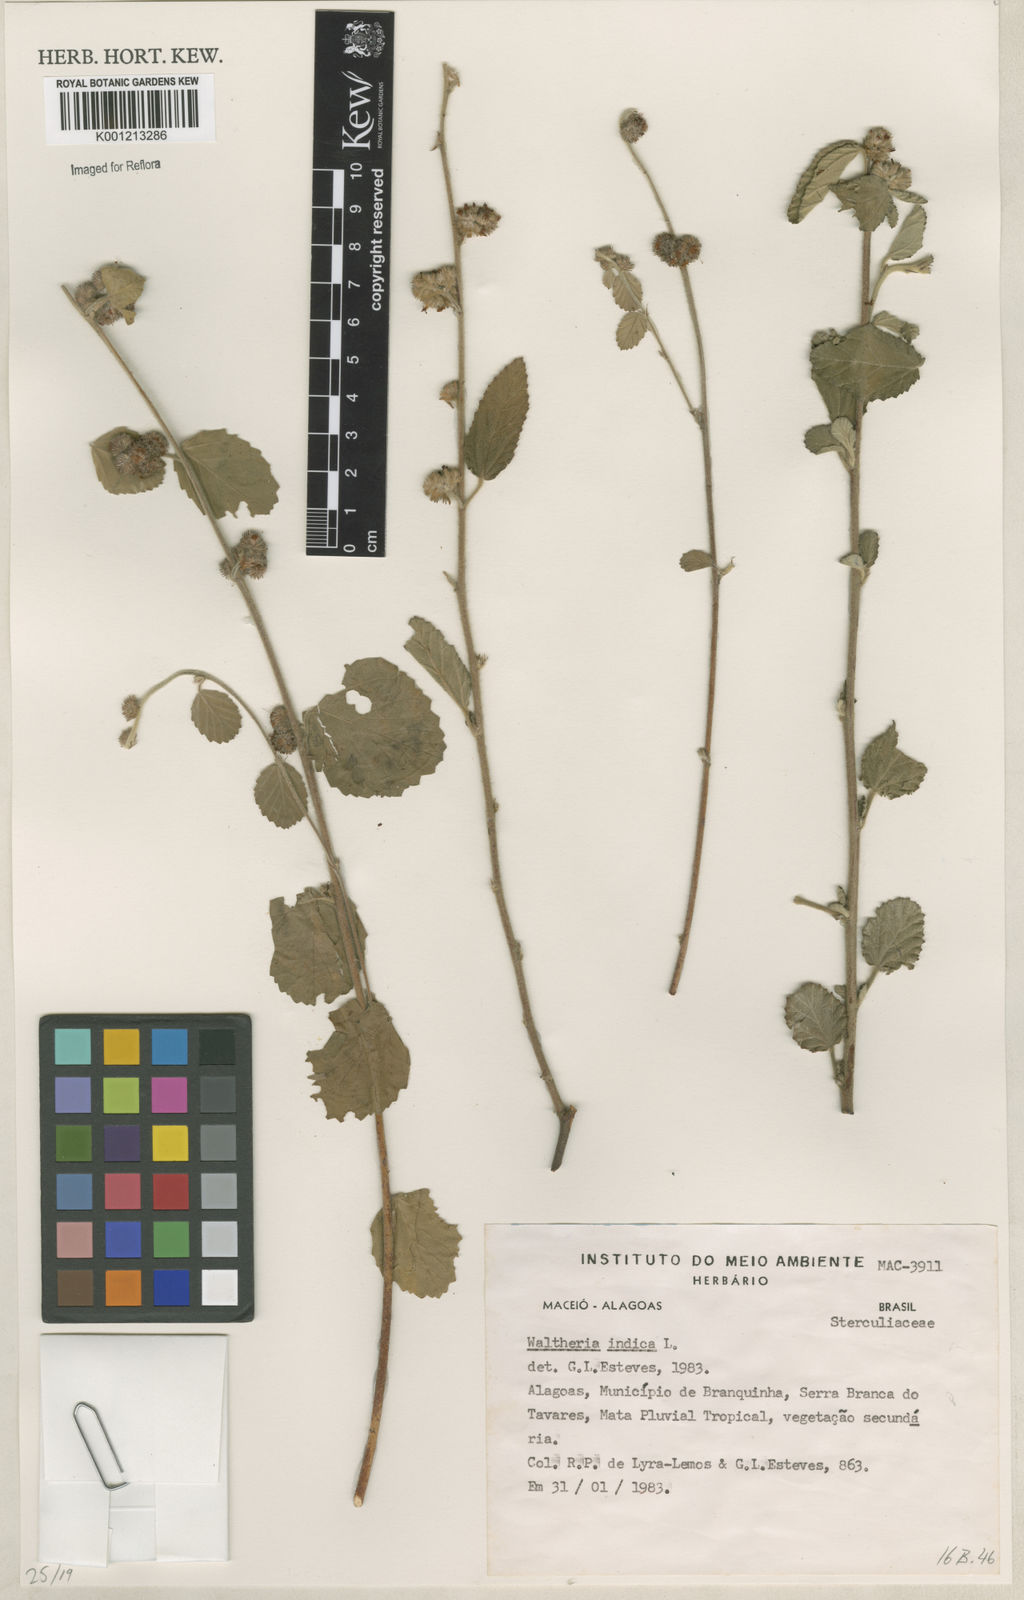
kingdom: Plantae
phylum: Tracheophyta
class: Magnoliopsida
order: Malvales
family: Malvaceae
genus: Waltheria
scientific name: Waltheria indica
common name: Leather-coat
